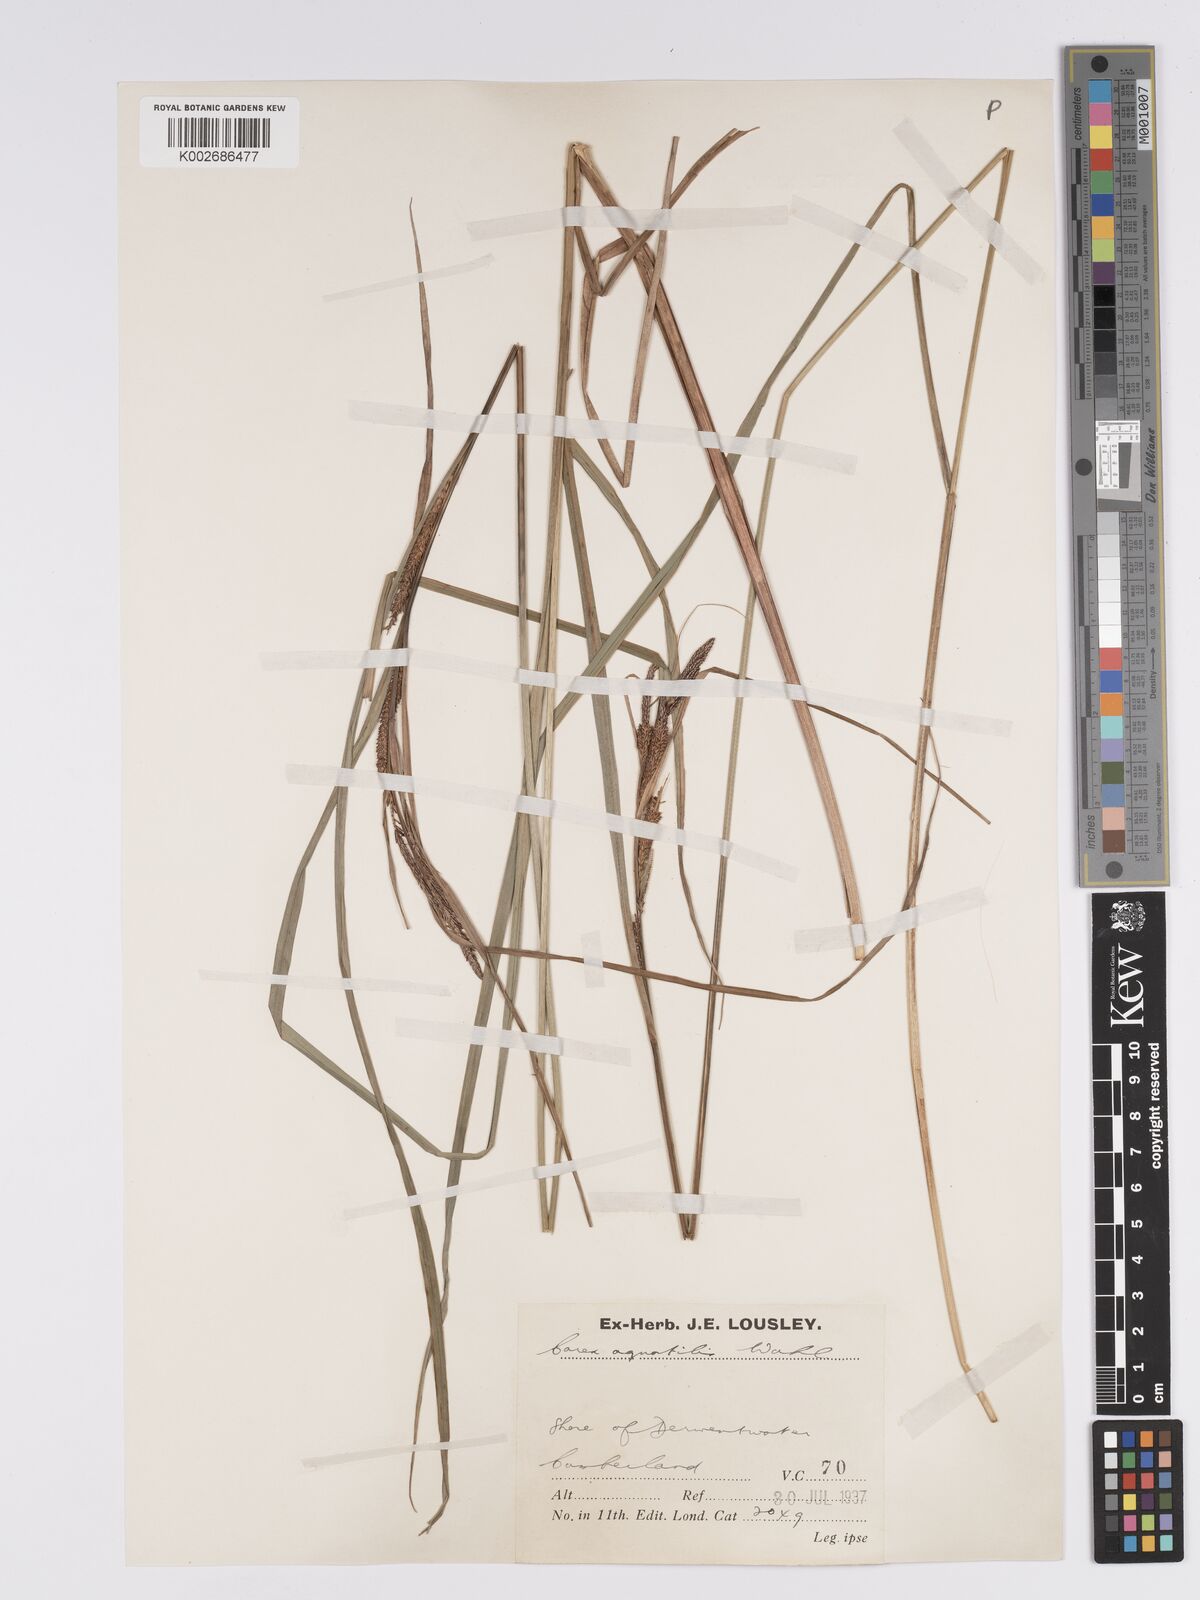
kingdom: Plantae
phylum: Tracheophyta
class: Liliopsida
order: Poales
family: Cyperaceae
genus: Carex
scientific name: Carex aquatilis
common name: Water sedge
